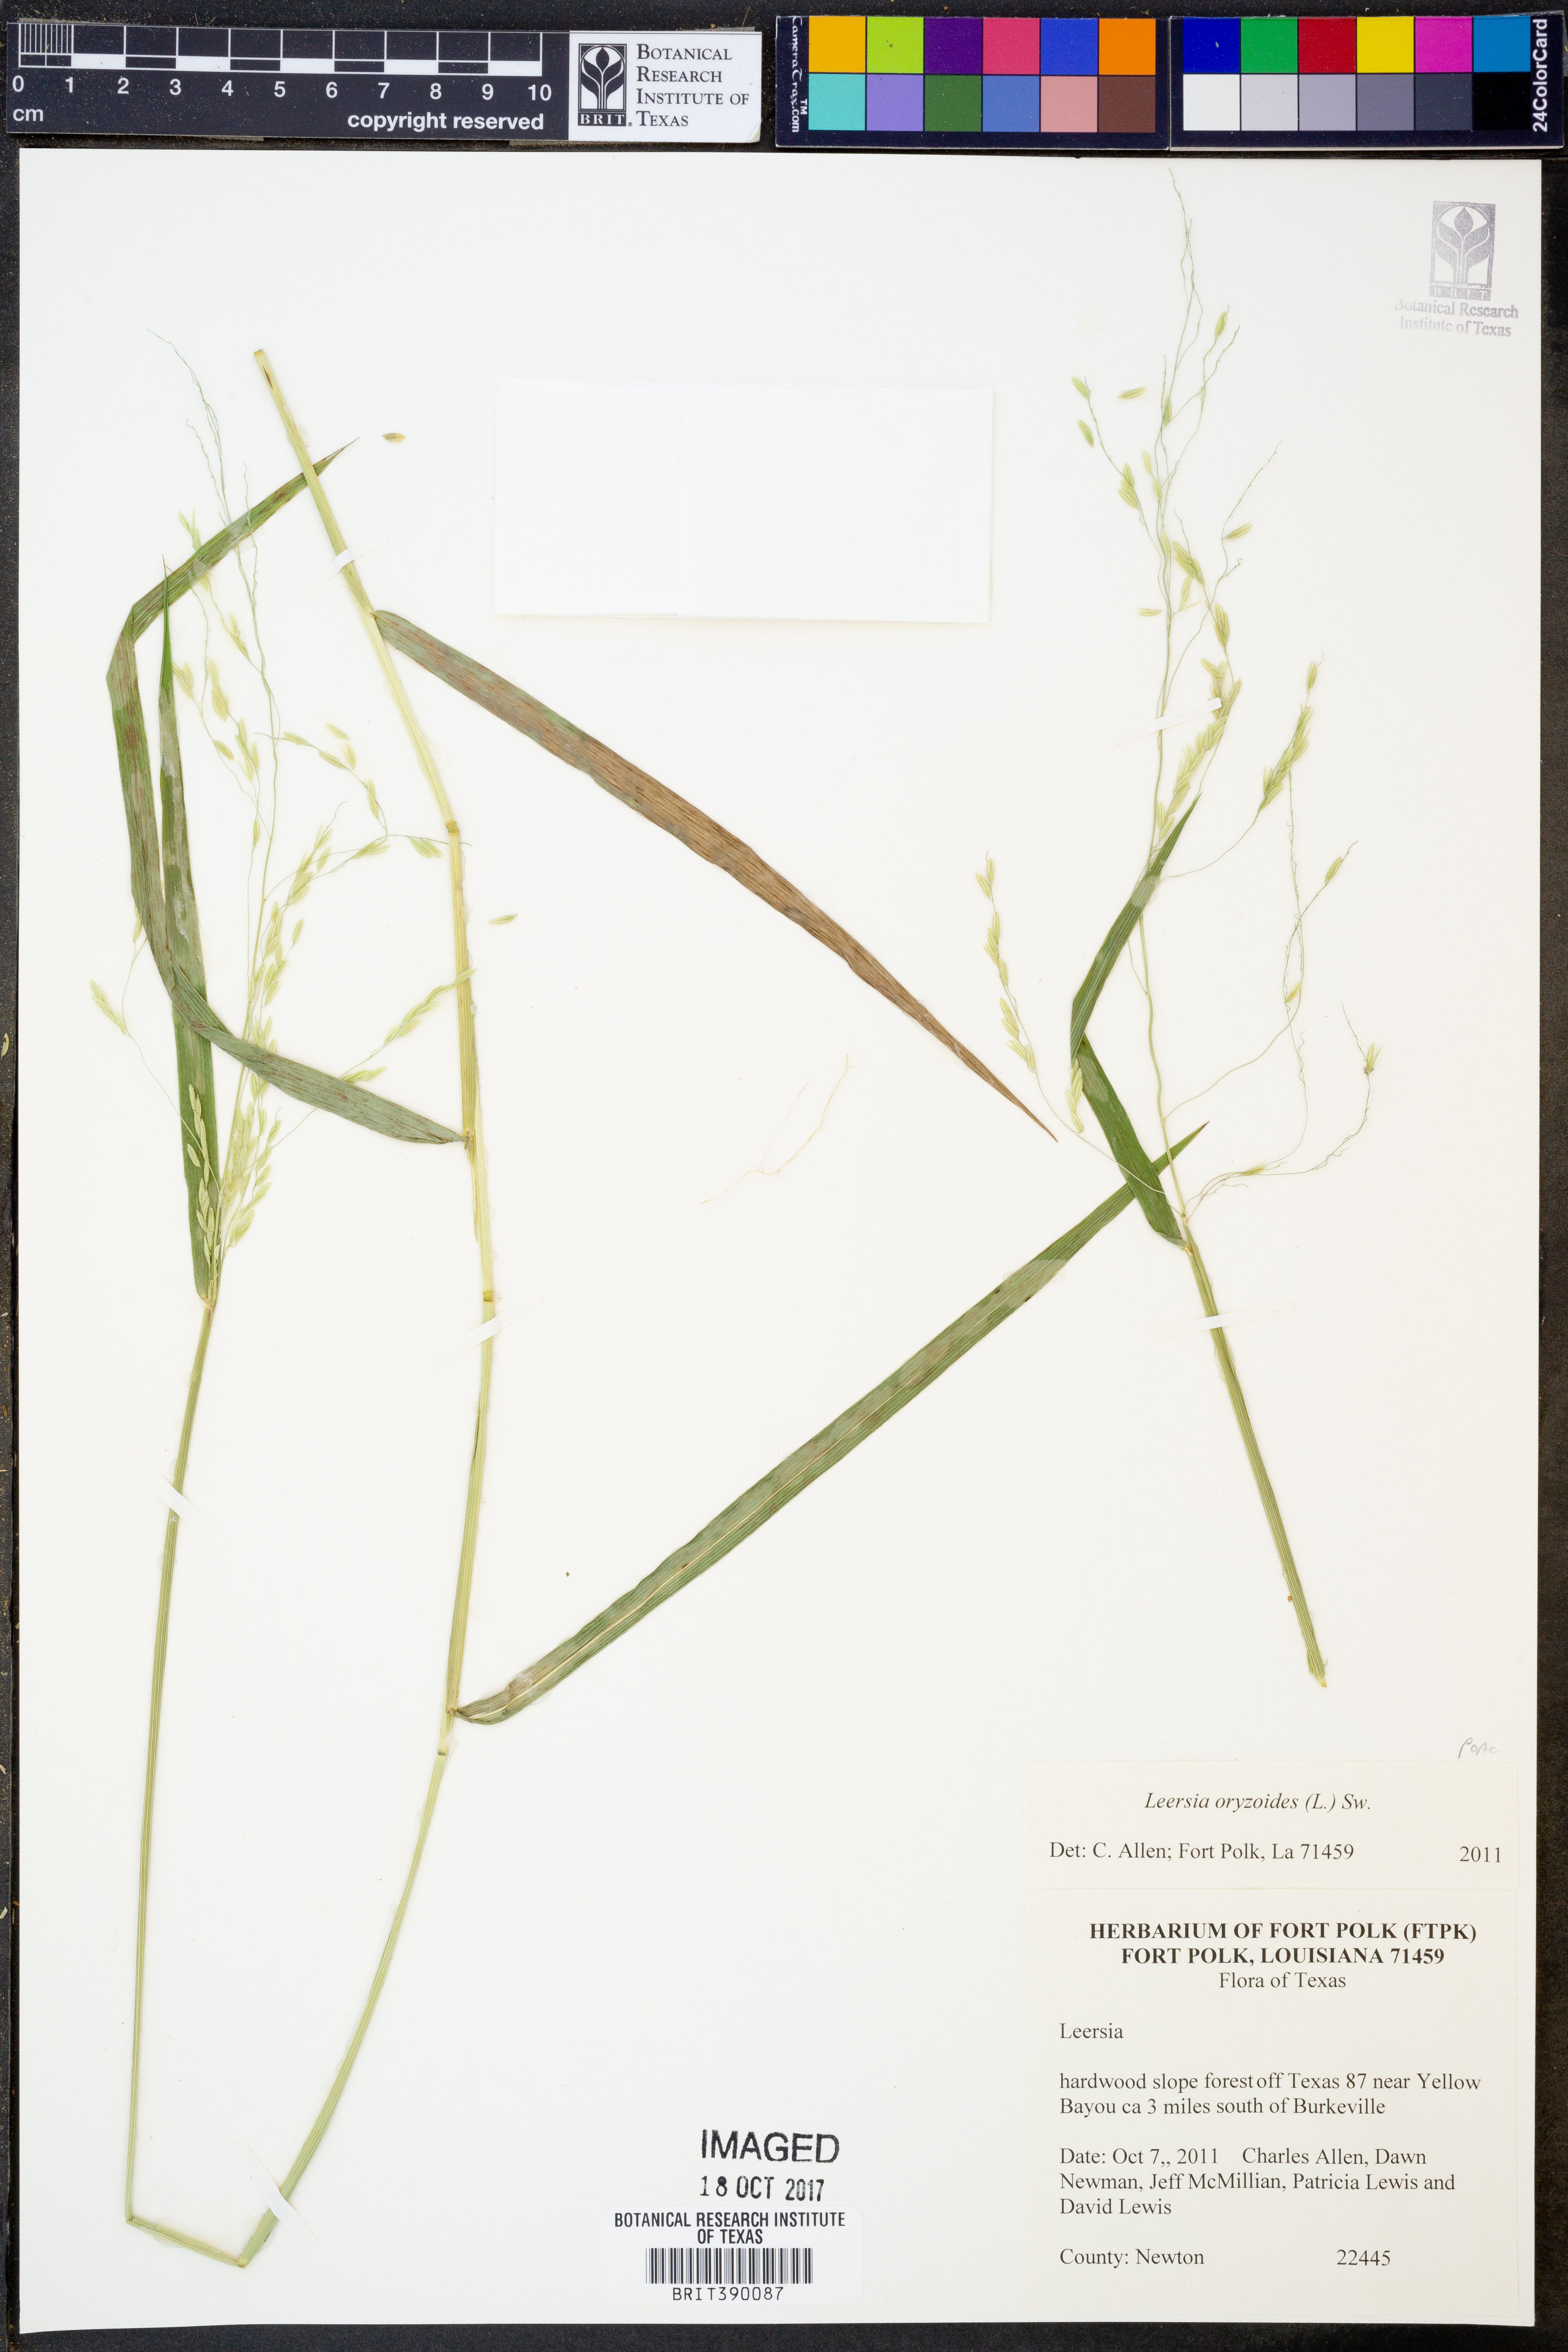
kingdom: Plantae
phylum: Tracheophyta
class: Liliopsida
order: Poales
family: Poaceae
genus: Leersia
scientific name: Leersia oryzoides
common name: Cut-grass
